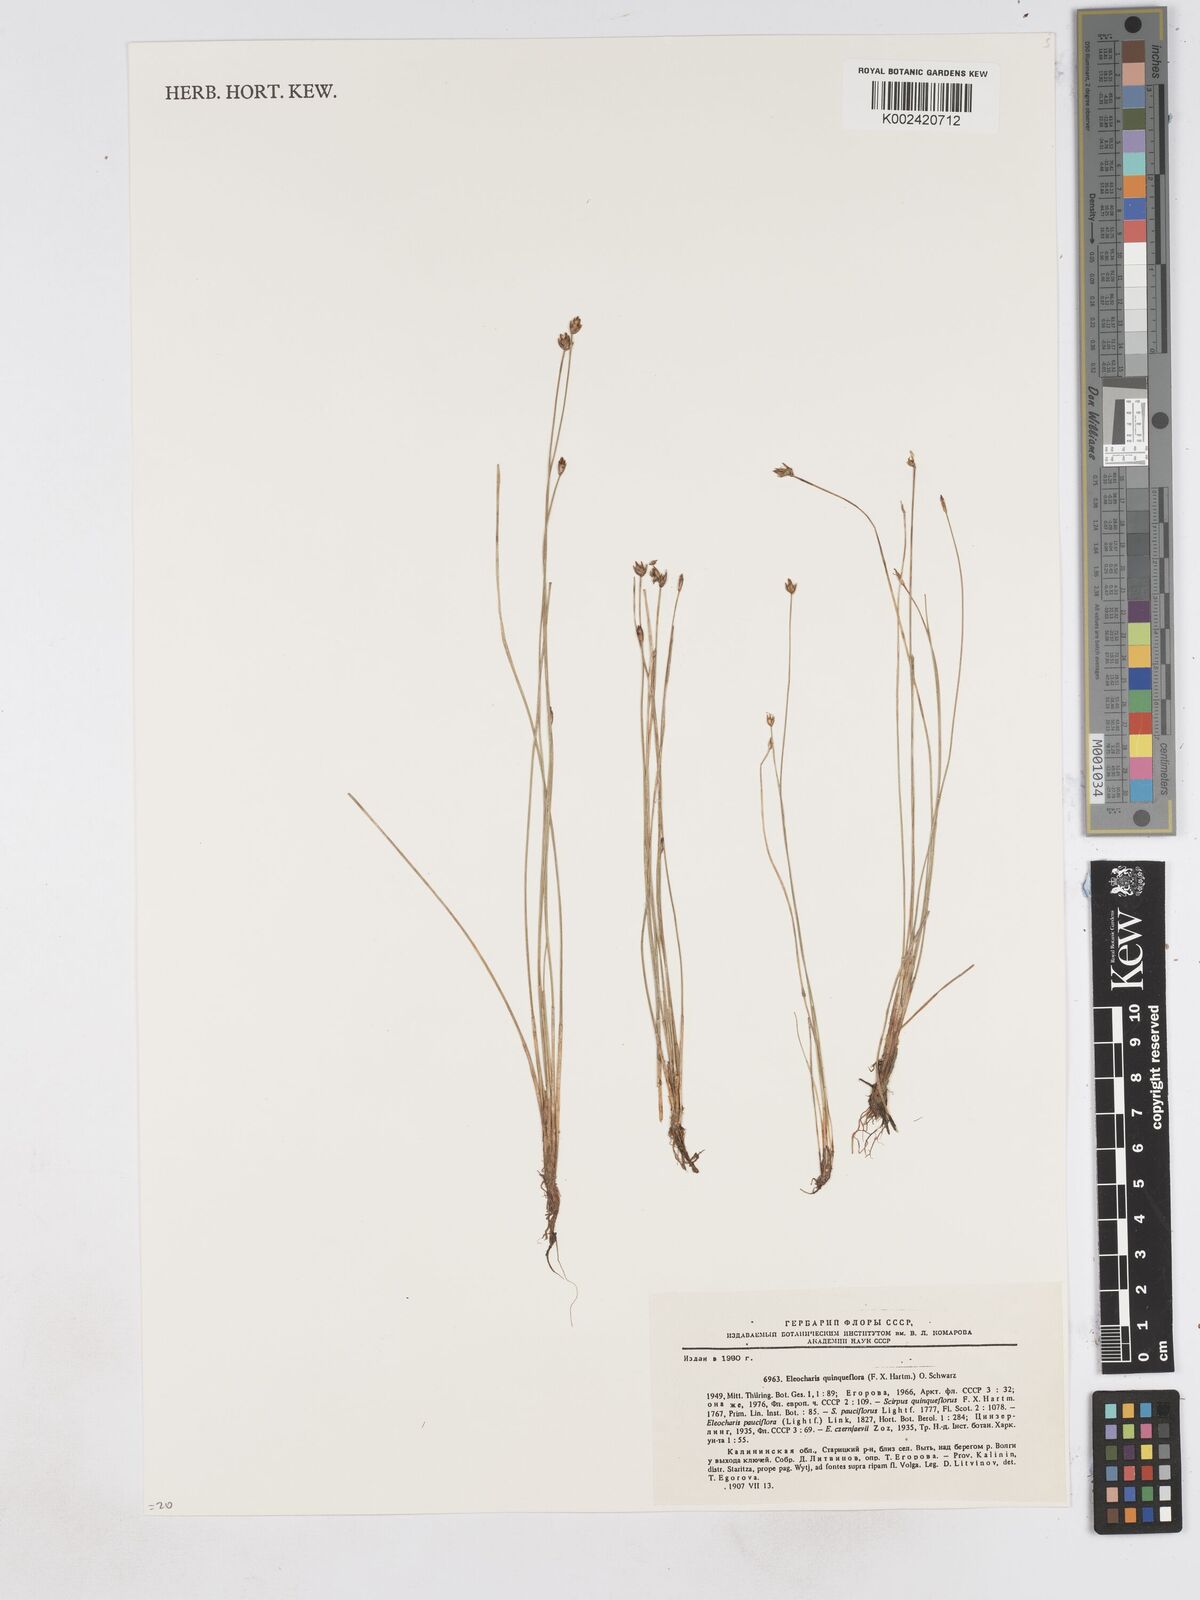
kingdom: Plantae
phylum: Tracheophyta
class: Liliopsida
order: Poales
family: Cyperaceae
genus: Eleocharis
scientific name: Eleocharis quinqueflora
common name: Few-flowered spike-rush
